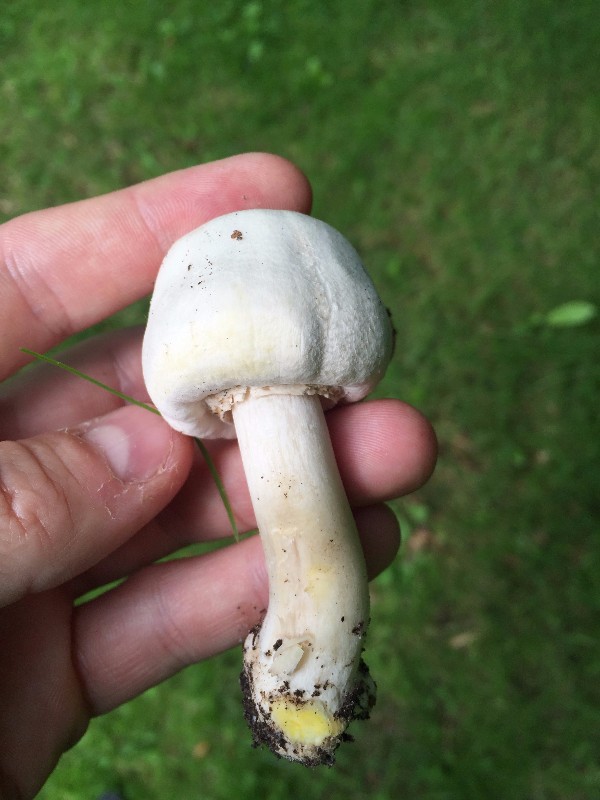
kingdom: Fungi
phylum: Basidiomycota
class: Agaricomycetes
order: Agaricales
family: Agaricaceae
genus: Agaricus
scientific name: Agaricus xanthodermus
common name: karbol-champignon
